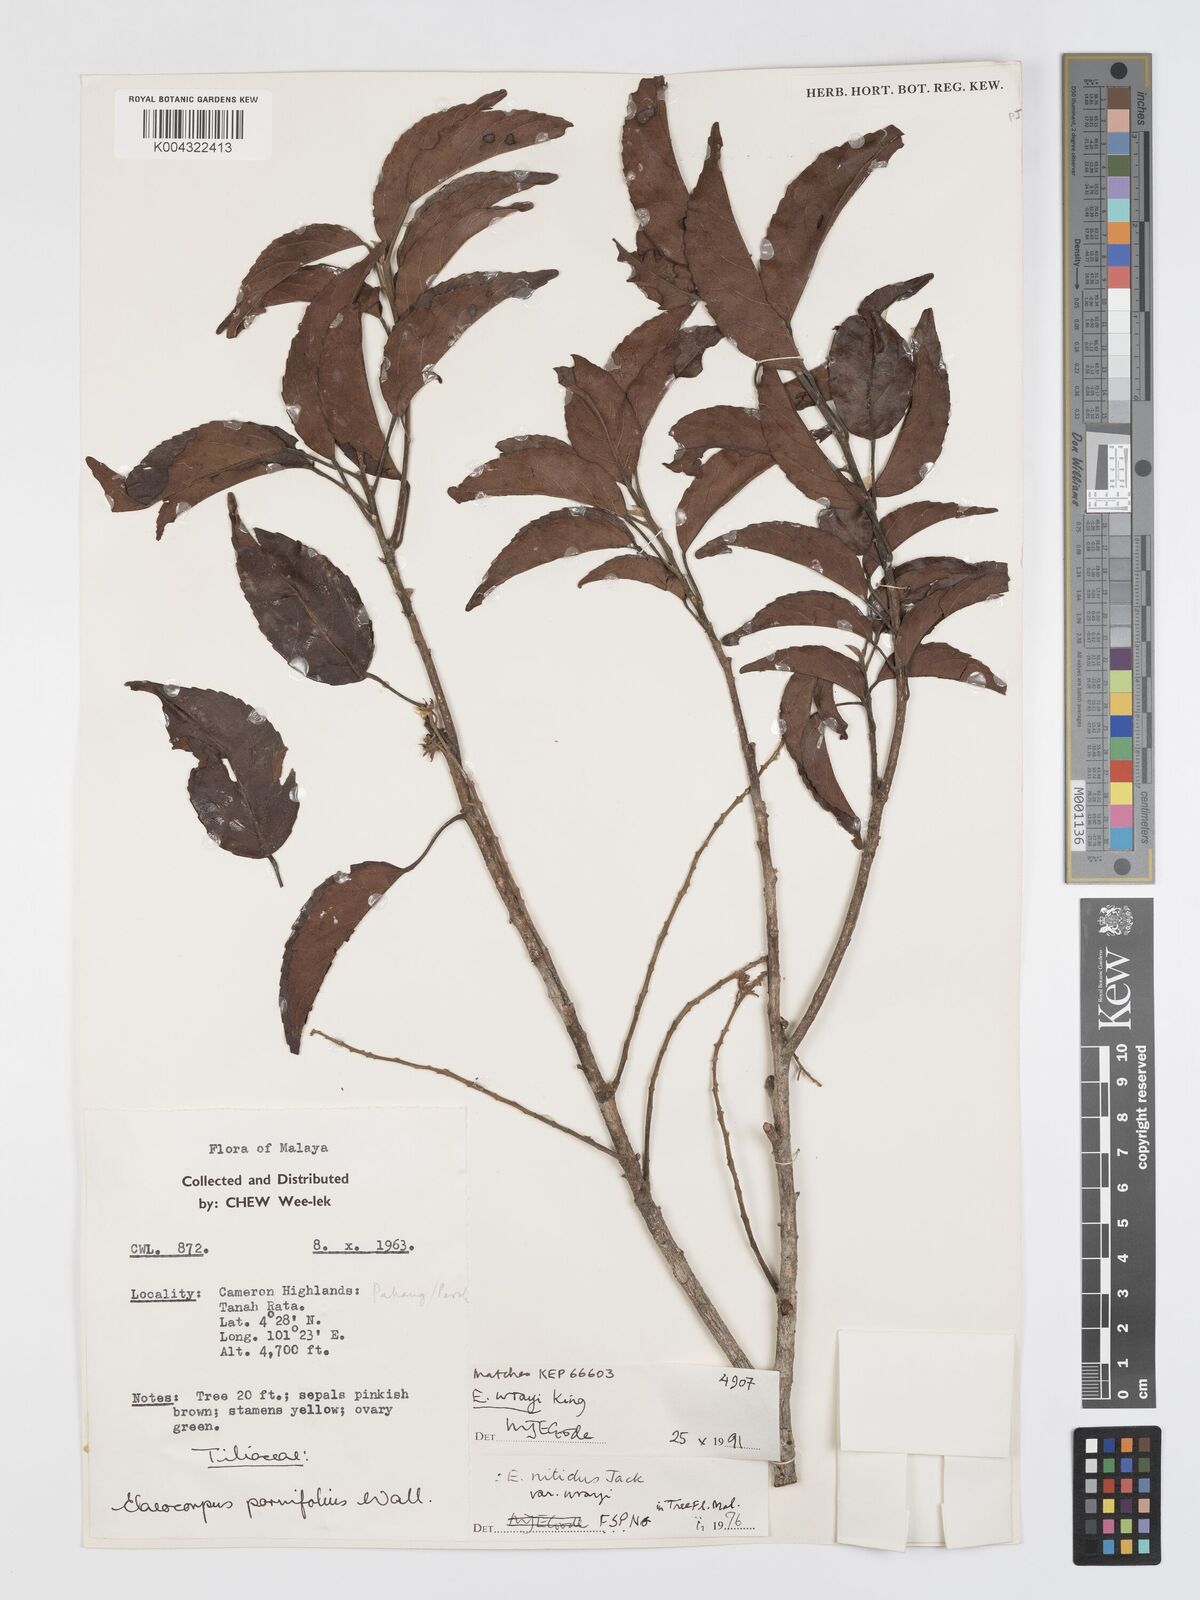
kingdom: Plantae
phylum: Tracheophyta
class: Magnoliopsida
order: Oxalidales
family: Elaeocarpaceae
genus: Elaeocarpus
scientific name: Elaeocarpus nitidus
